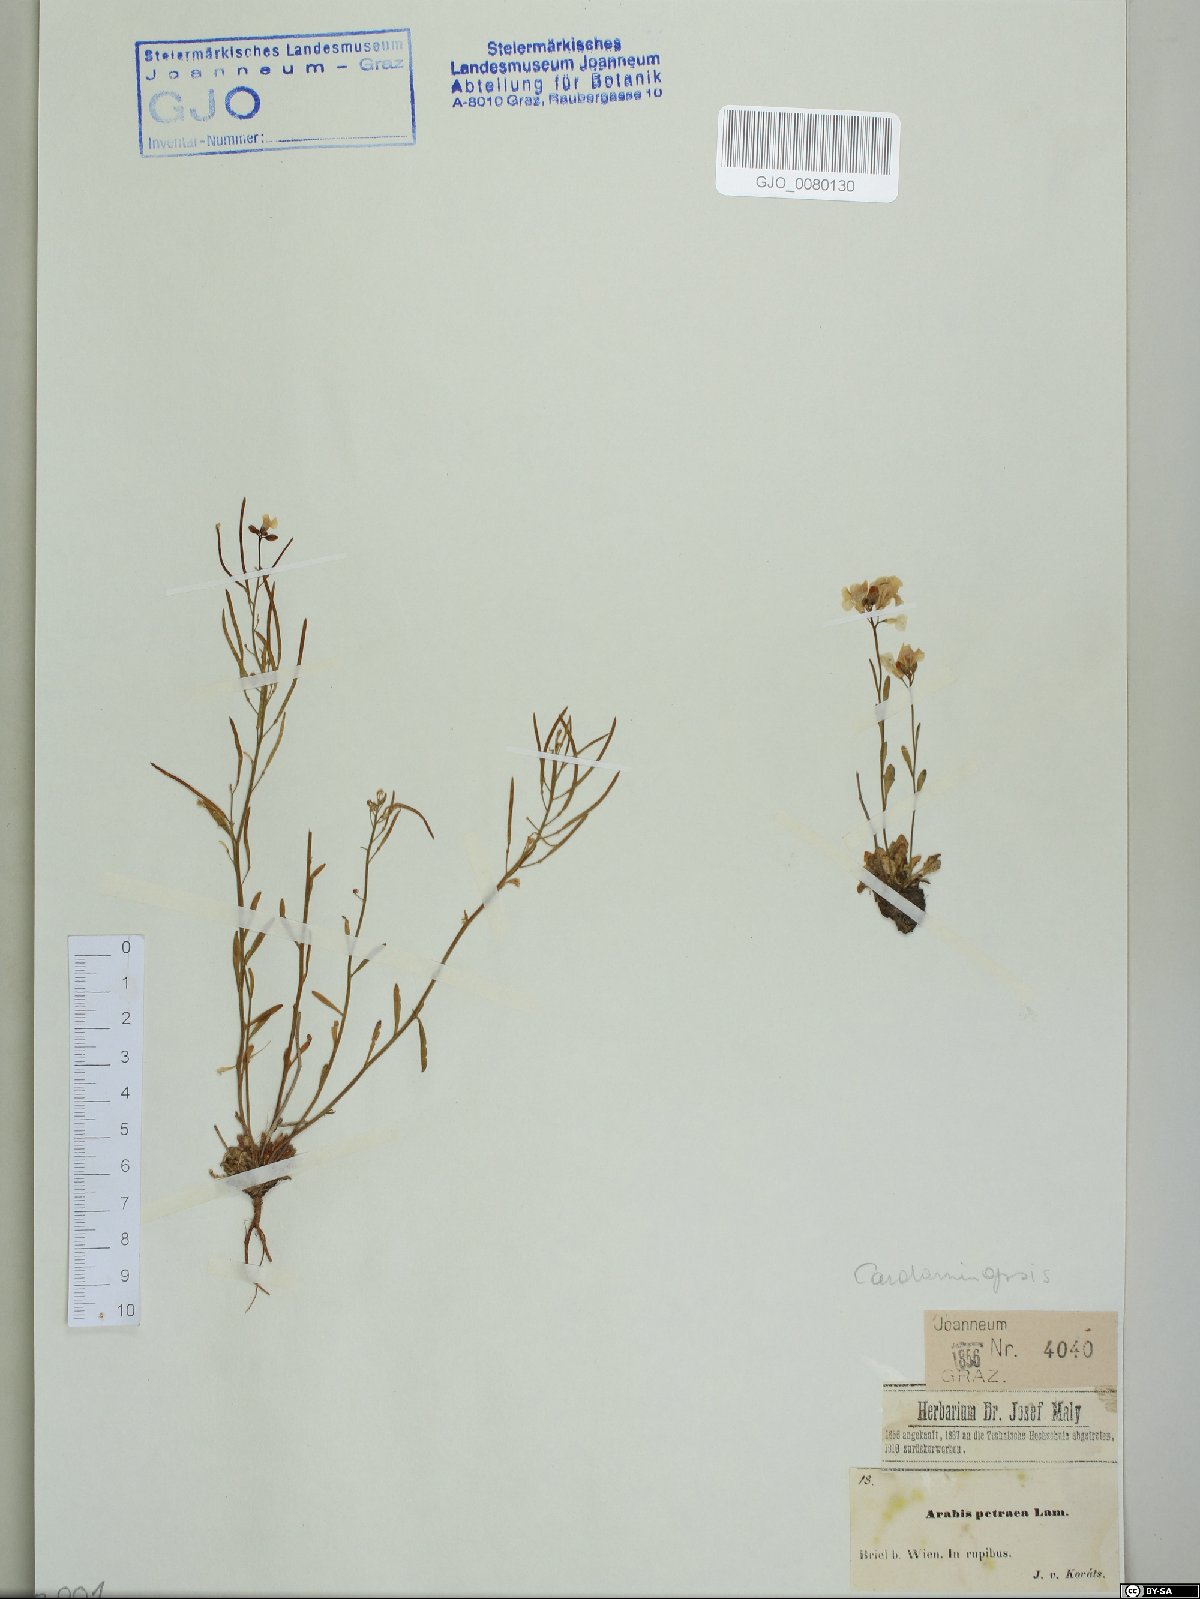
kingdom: Plantae
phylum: Tracheophyta
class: Magnoliopsida
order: Brassicales
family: Brassicaceae
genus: Arabidopsis
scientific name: Arabidopsis lyrata
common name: Lyrate rockcress
